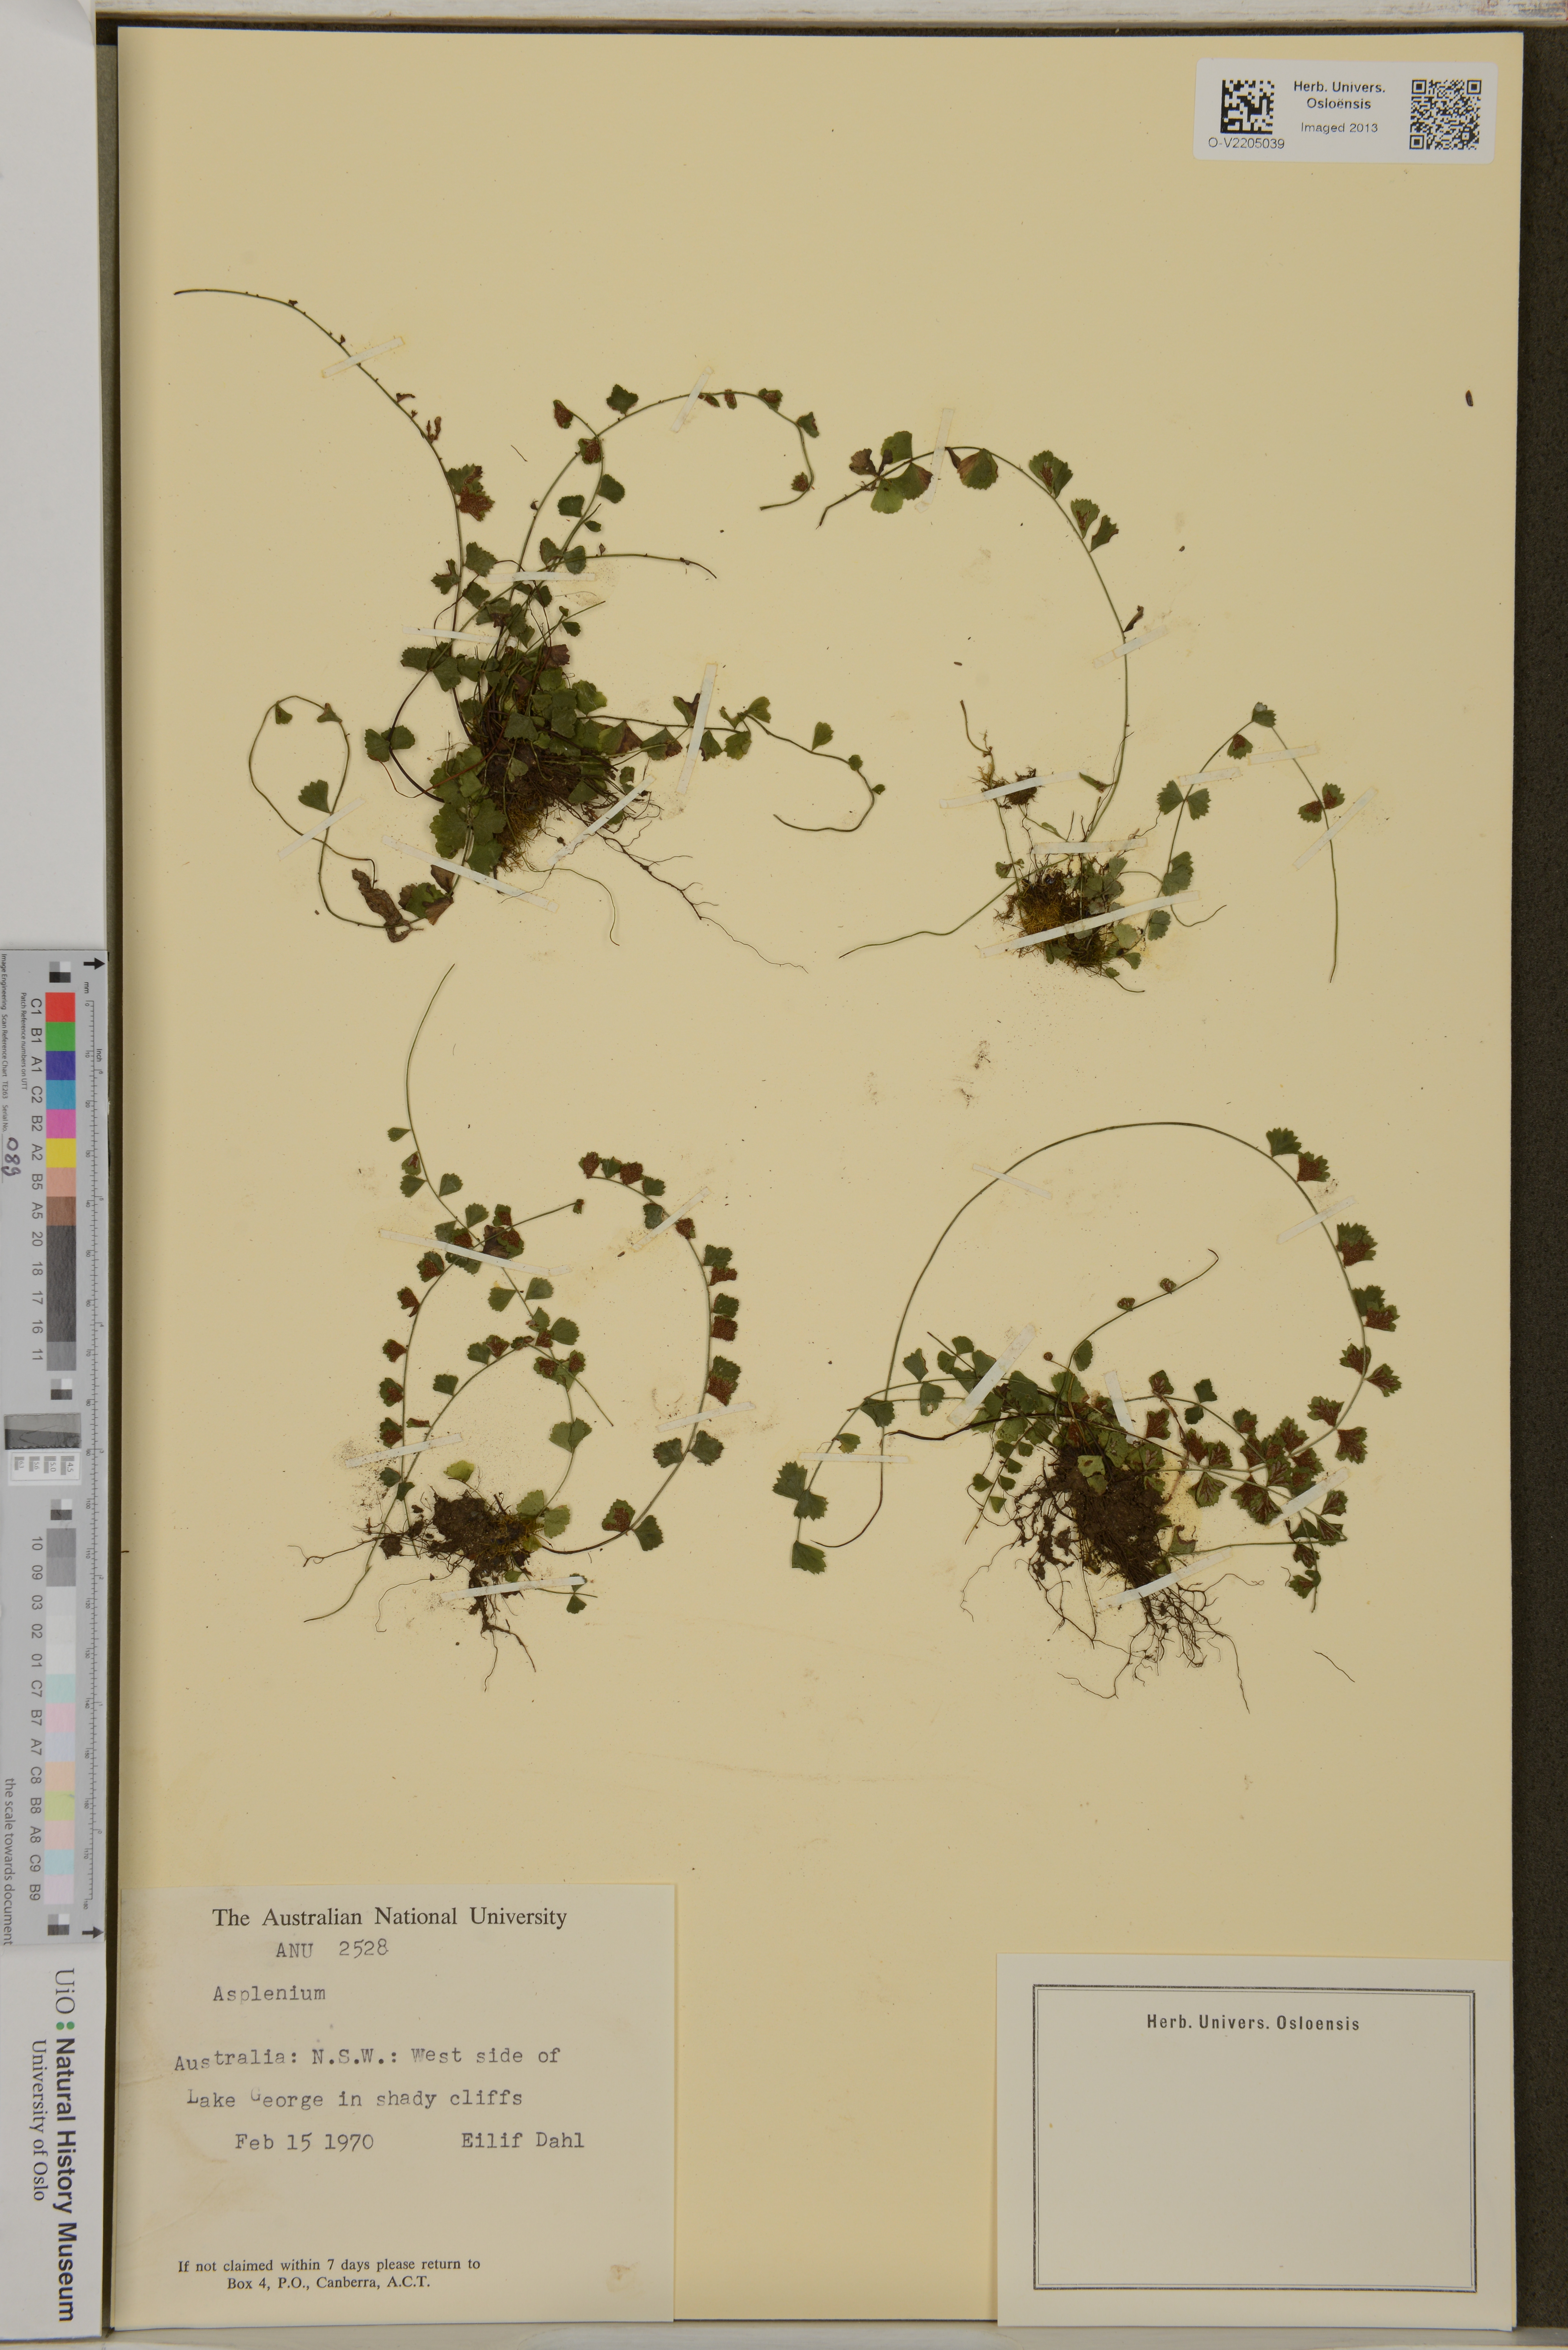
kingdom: Plantae
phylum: Tracheophyta
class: Polypodiopsida
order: Polypodiales
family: Aspleniaceae
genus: Asplenium
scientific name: Asplenium
